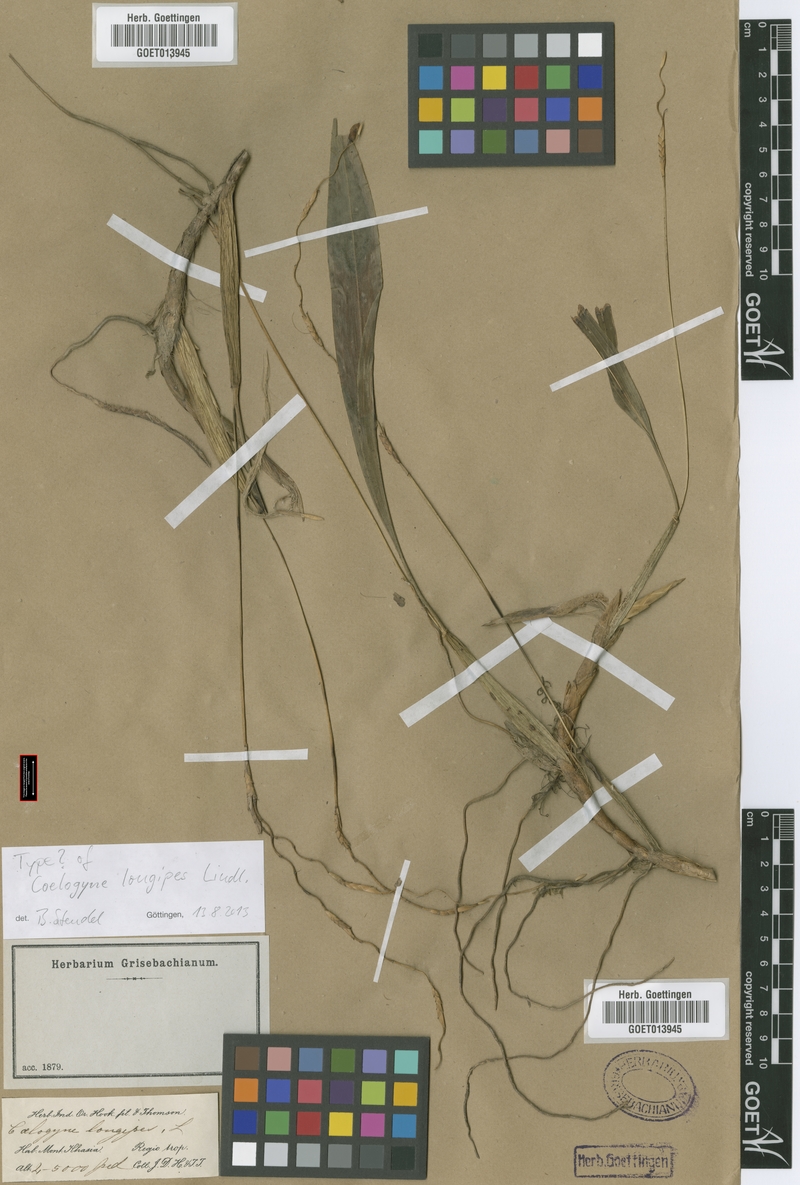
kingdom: Plantae
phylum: Tracheophyta
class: Liliopsida
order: Asparagales
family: Orchidaceae
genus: Coelogyne
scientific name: Coelogyne longipes
